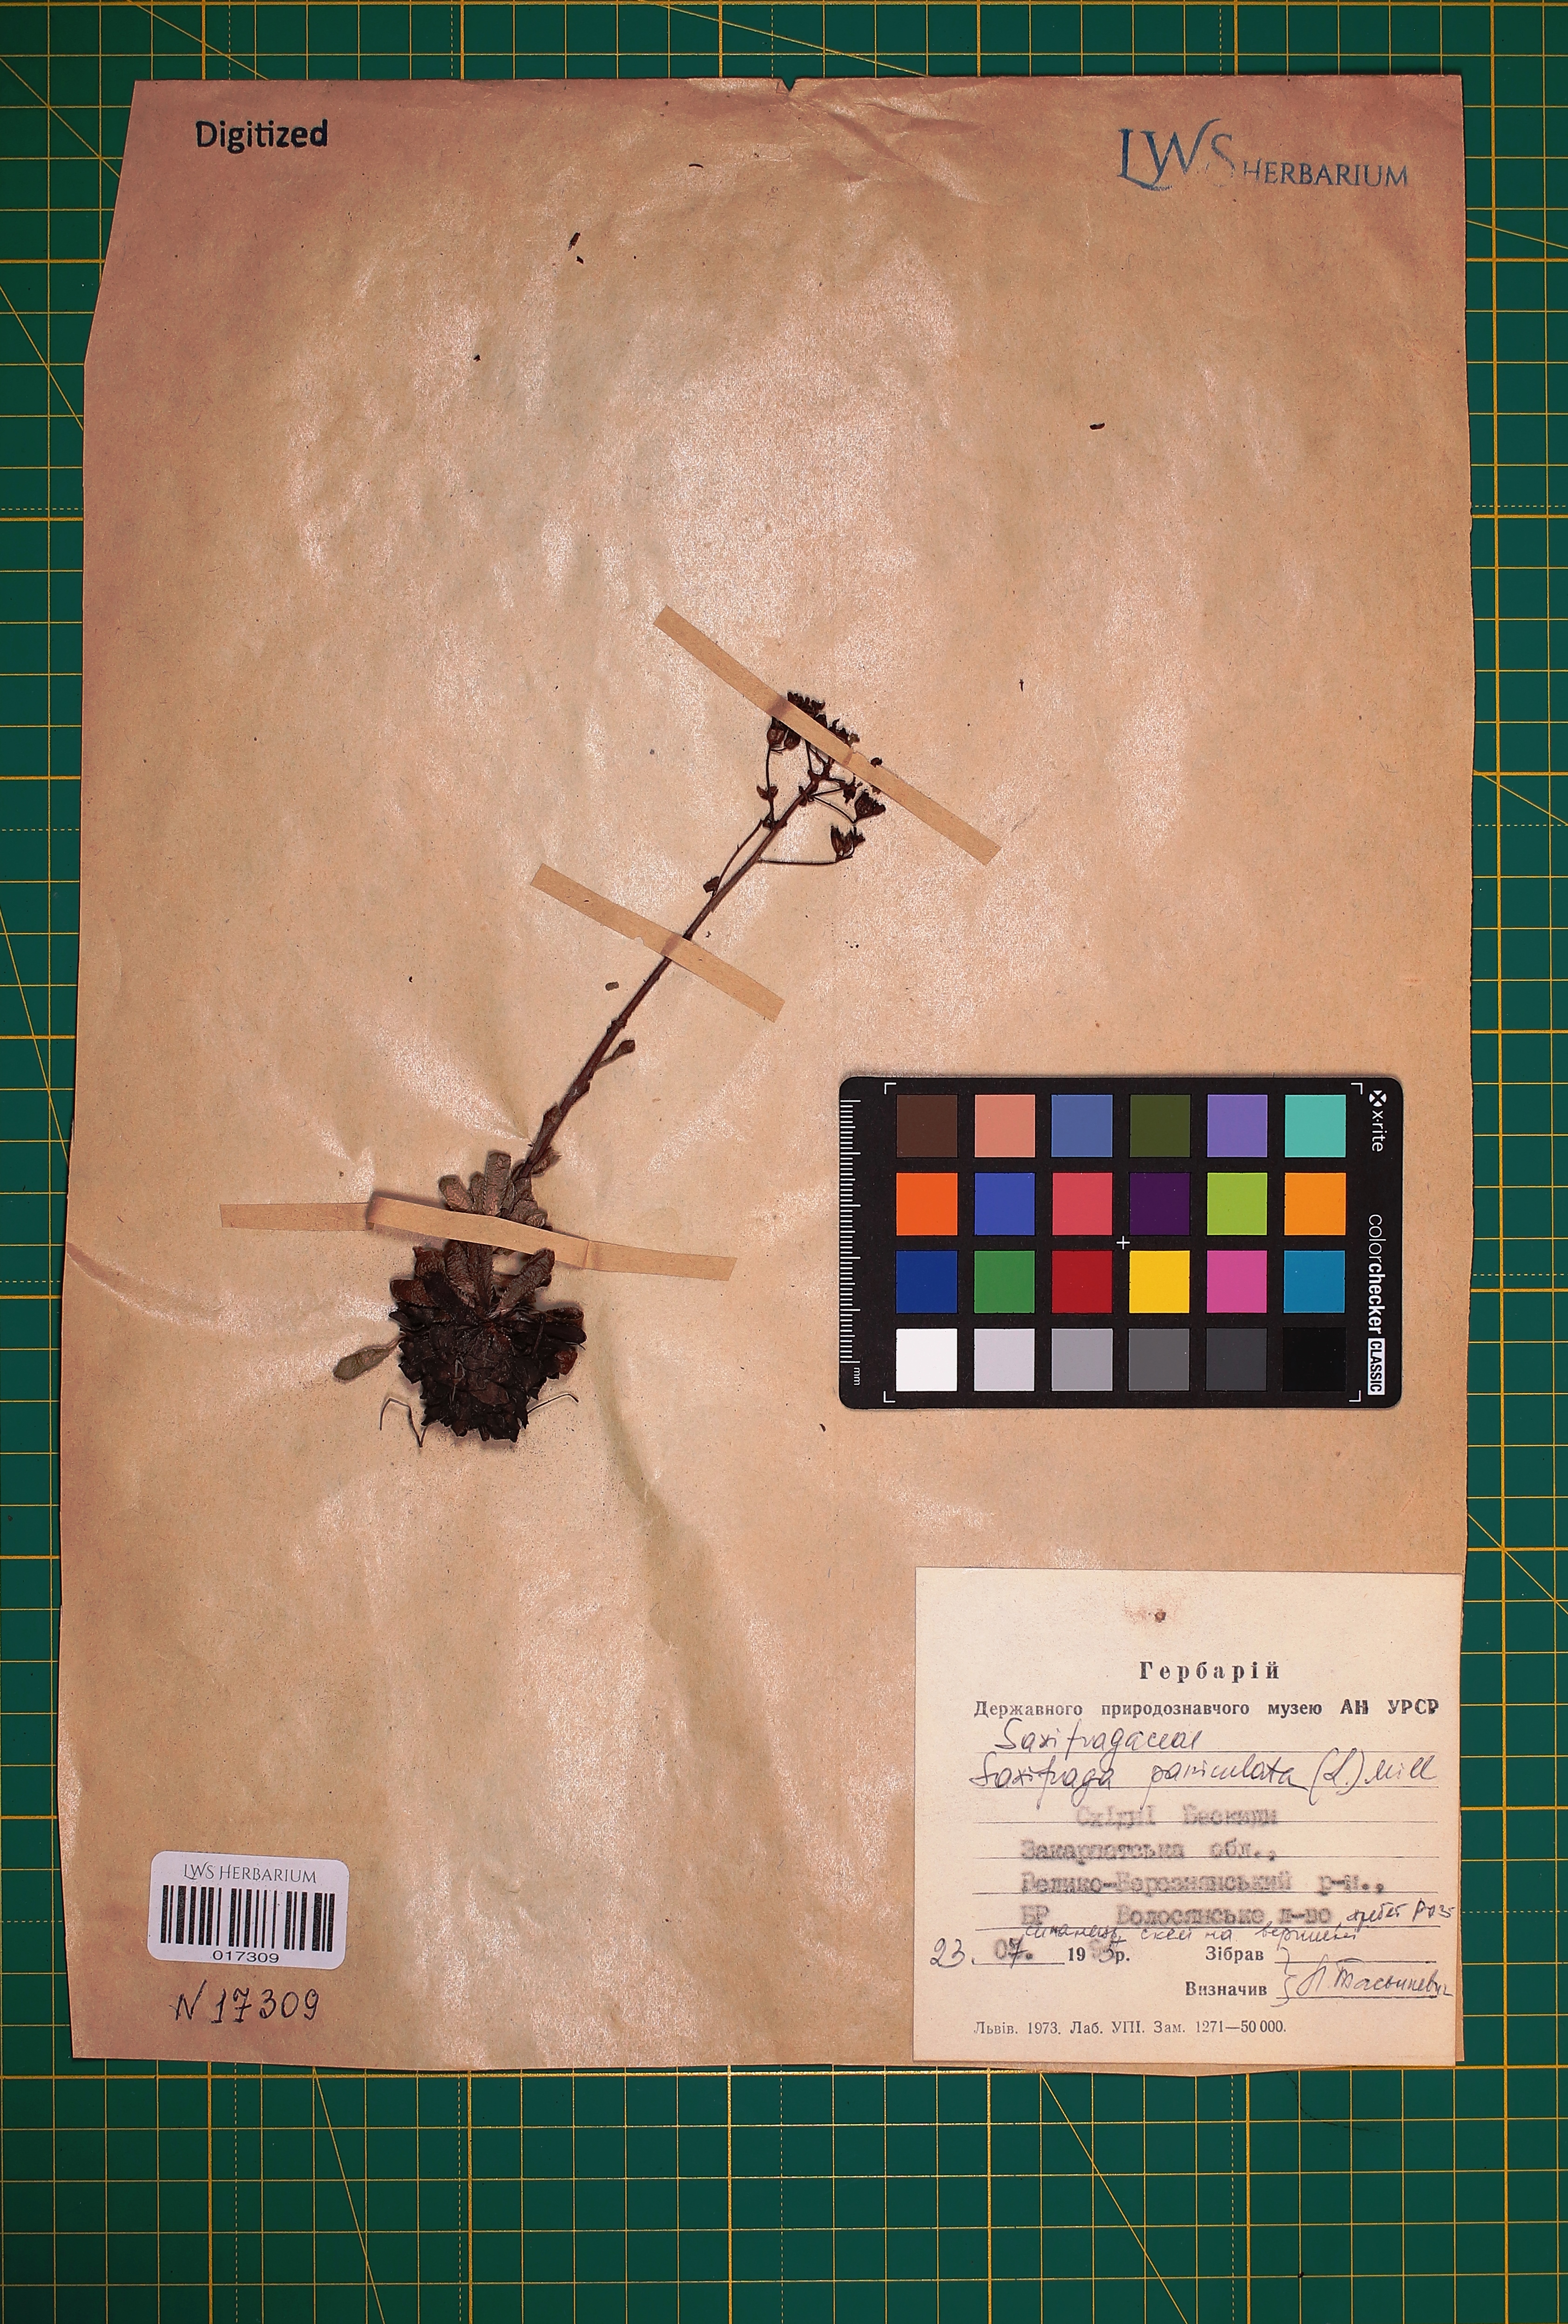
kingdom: Plantae
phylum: Tracheophyta
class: Magnoliopsida
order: Saxifragales
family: Saxifragaceae
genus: Saxifraga
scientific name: Saxifraga paniculata
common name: Livelong saxifrage
